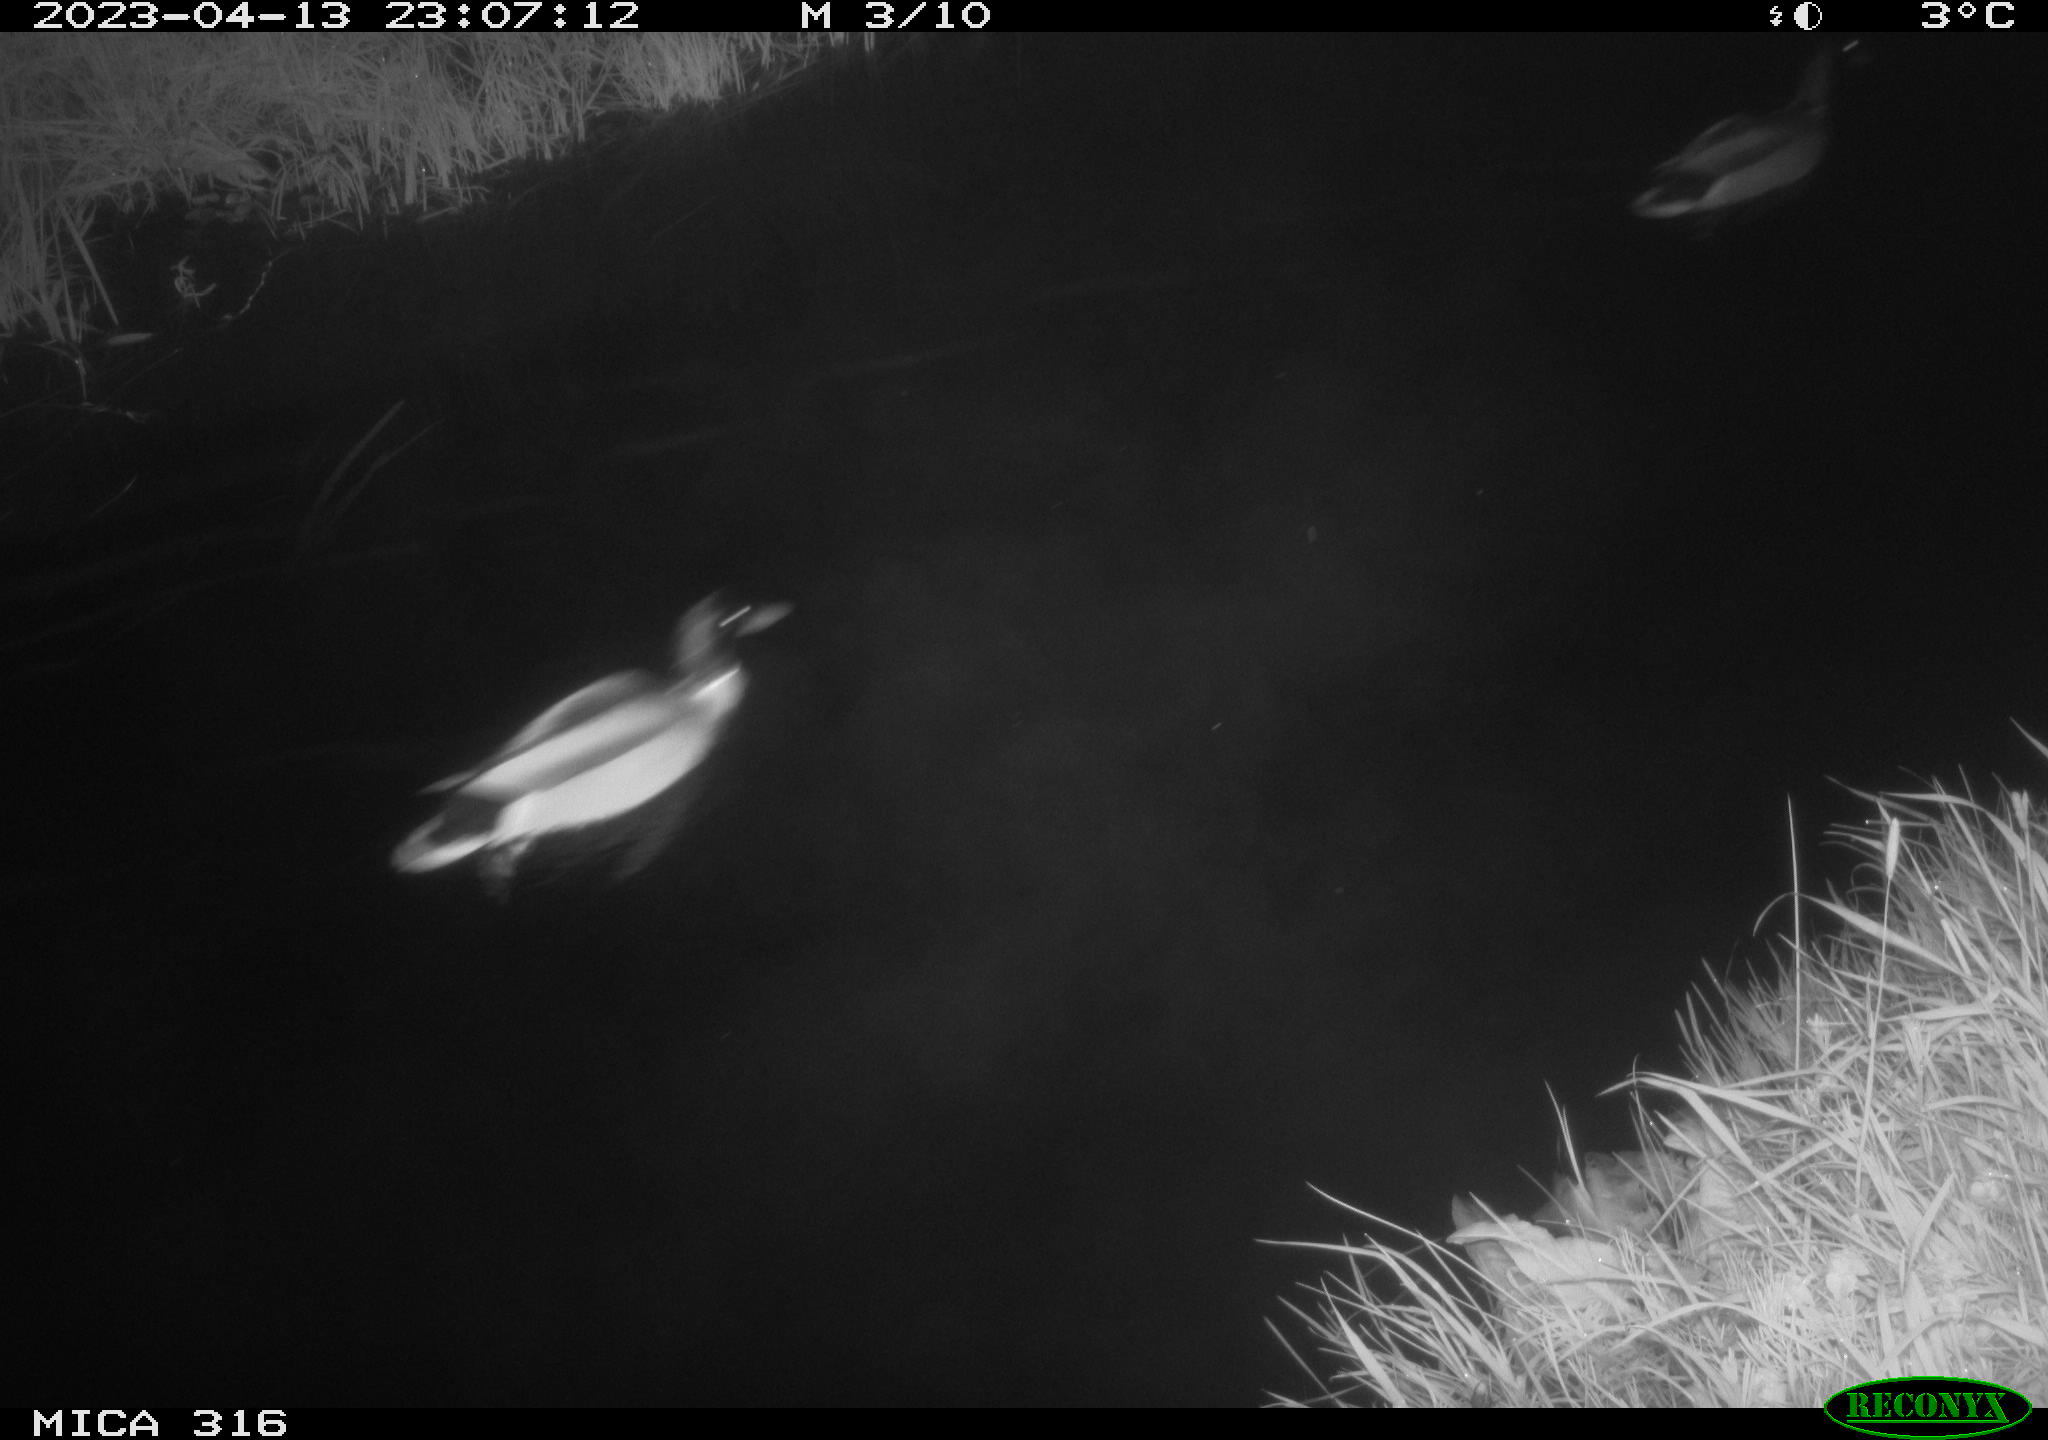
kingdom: Animalia
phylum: Chordata
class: Aves
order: Anseriformes
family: Anatidae
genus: Anas
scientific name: Anas
